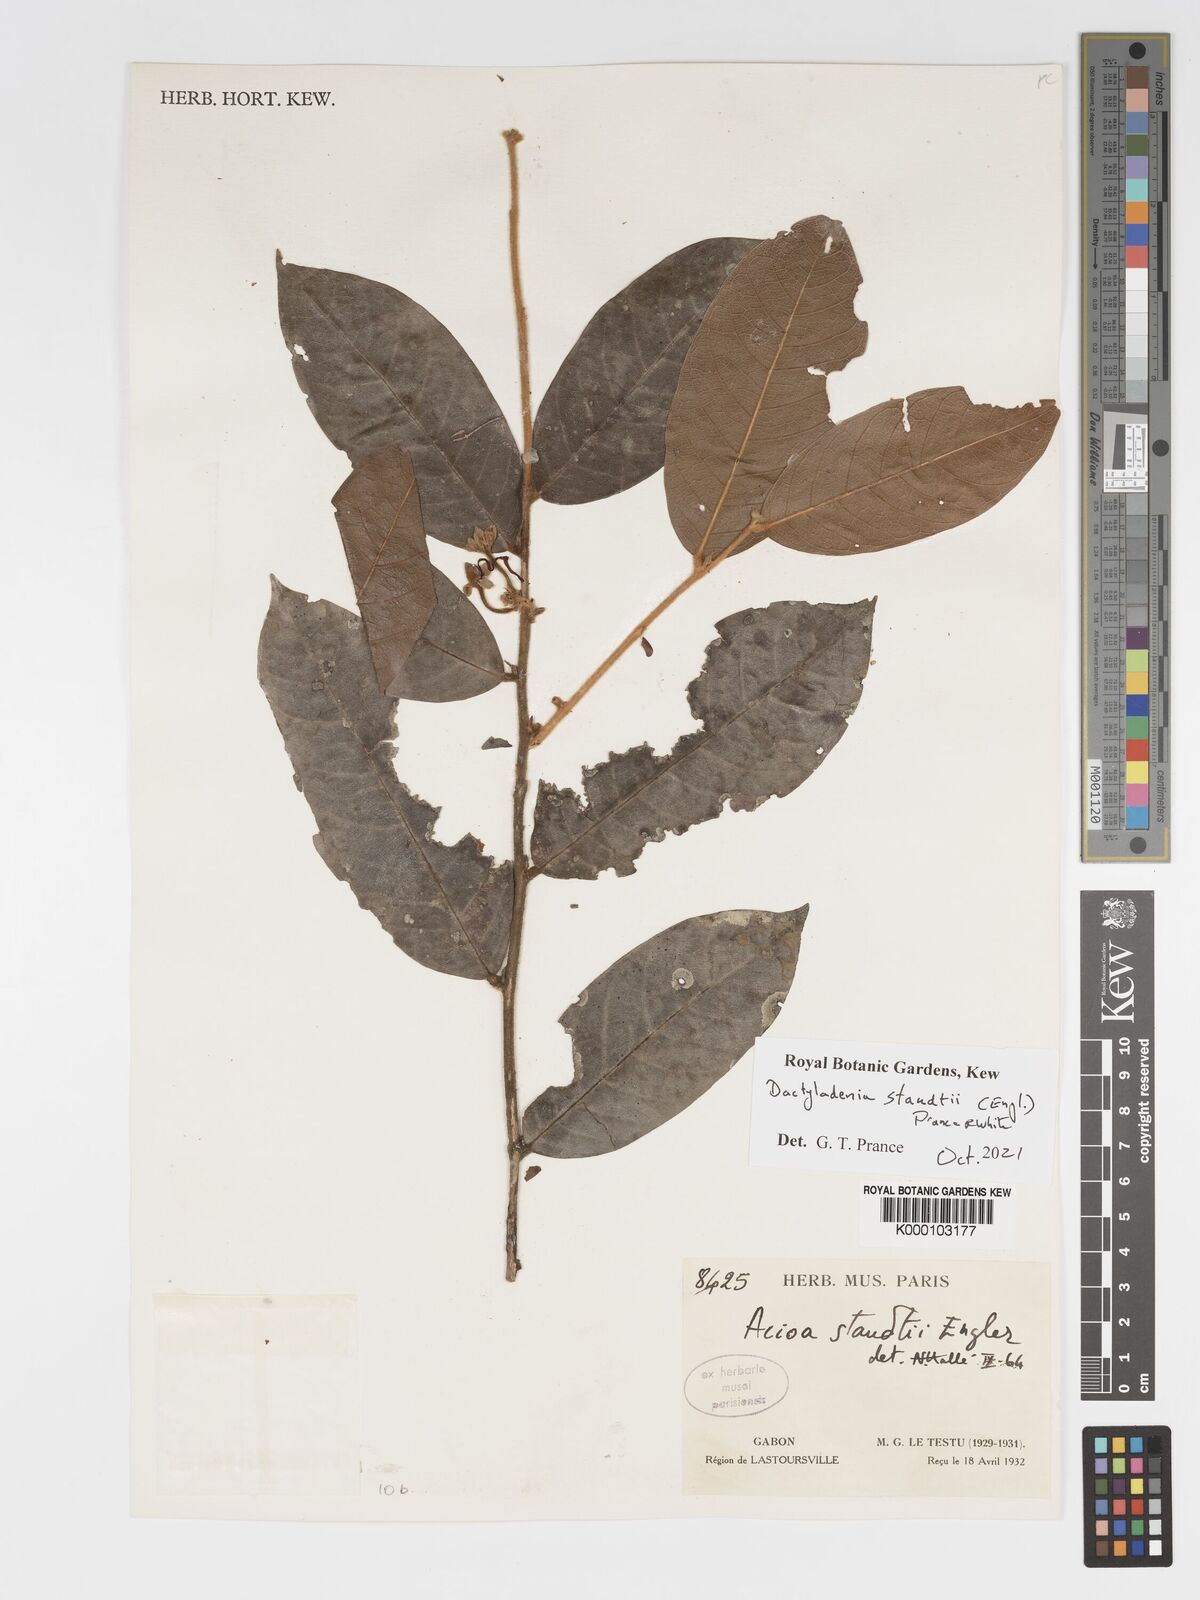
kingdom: Plantae
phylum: Tracheophyta
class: Magnoliopsida
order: Malpighiales
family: Chrysobalanaceae
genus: Dactyladenia
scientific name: Dactyladenia staudtii
